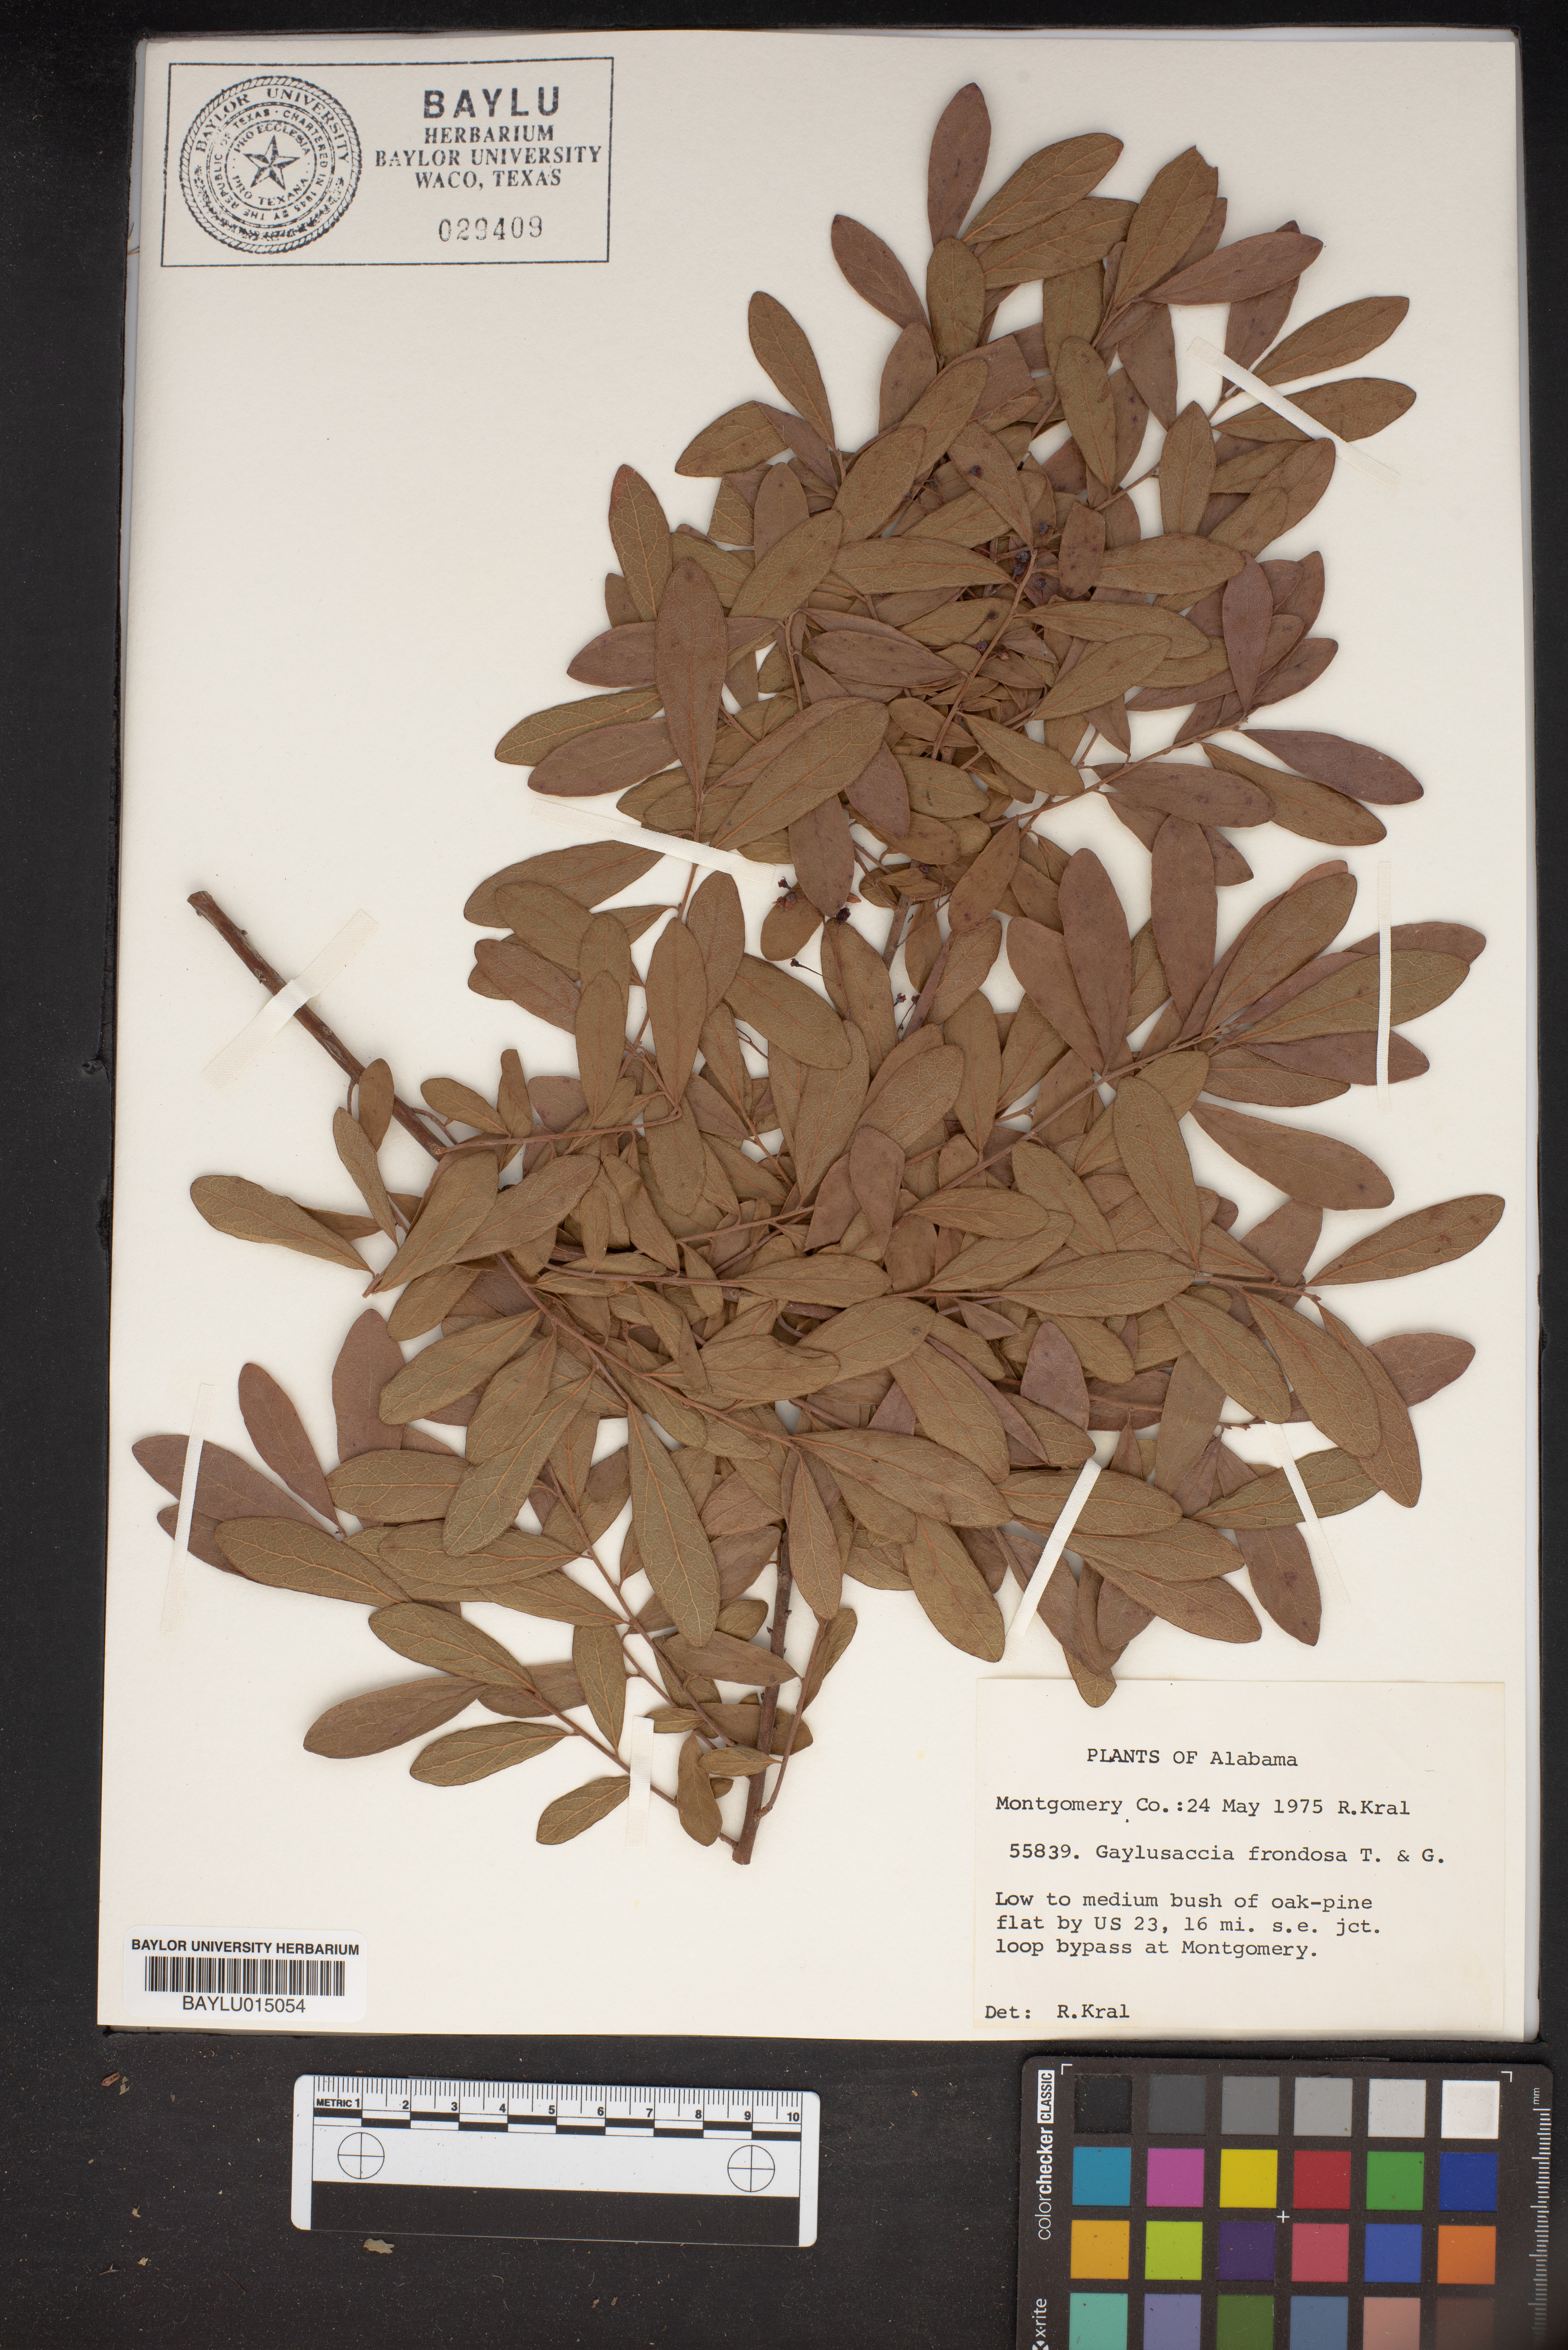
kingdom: Plantae
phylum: Tracheophyta
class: Magnoliopsida
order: Ericales
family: Ericaceae
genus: Gaylussacia
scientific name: Gaylussacia frondosa
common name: Dangleberry
